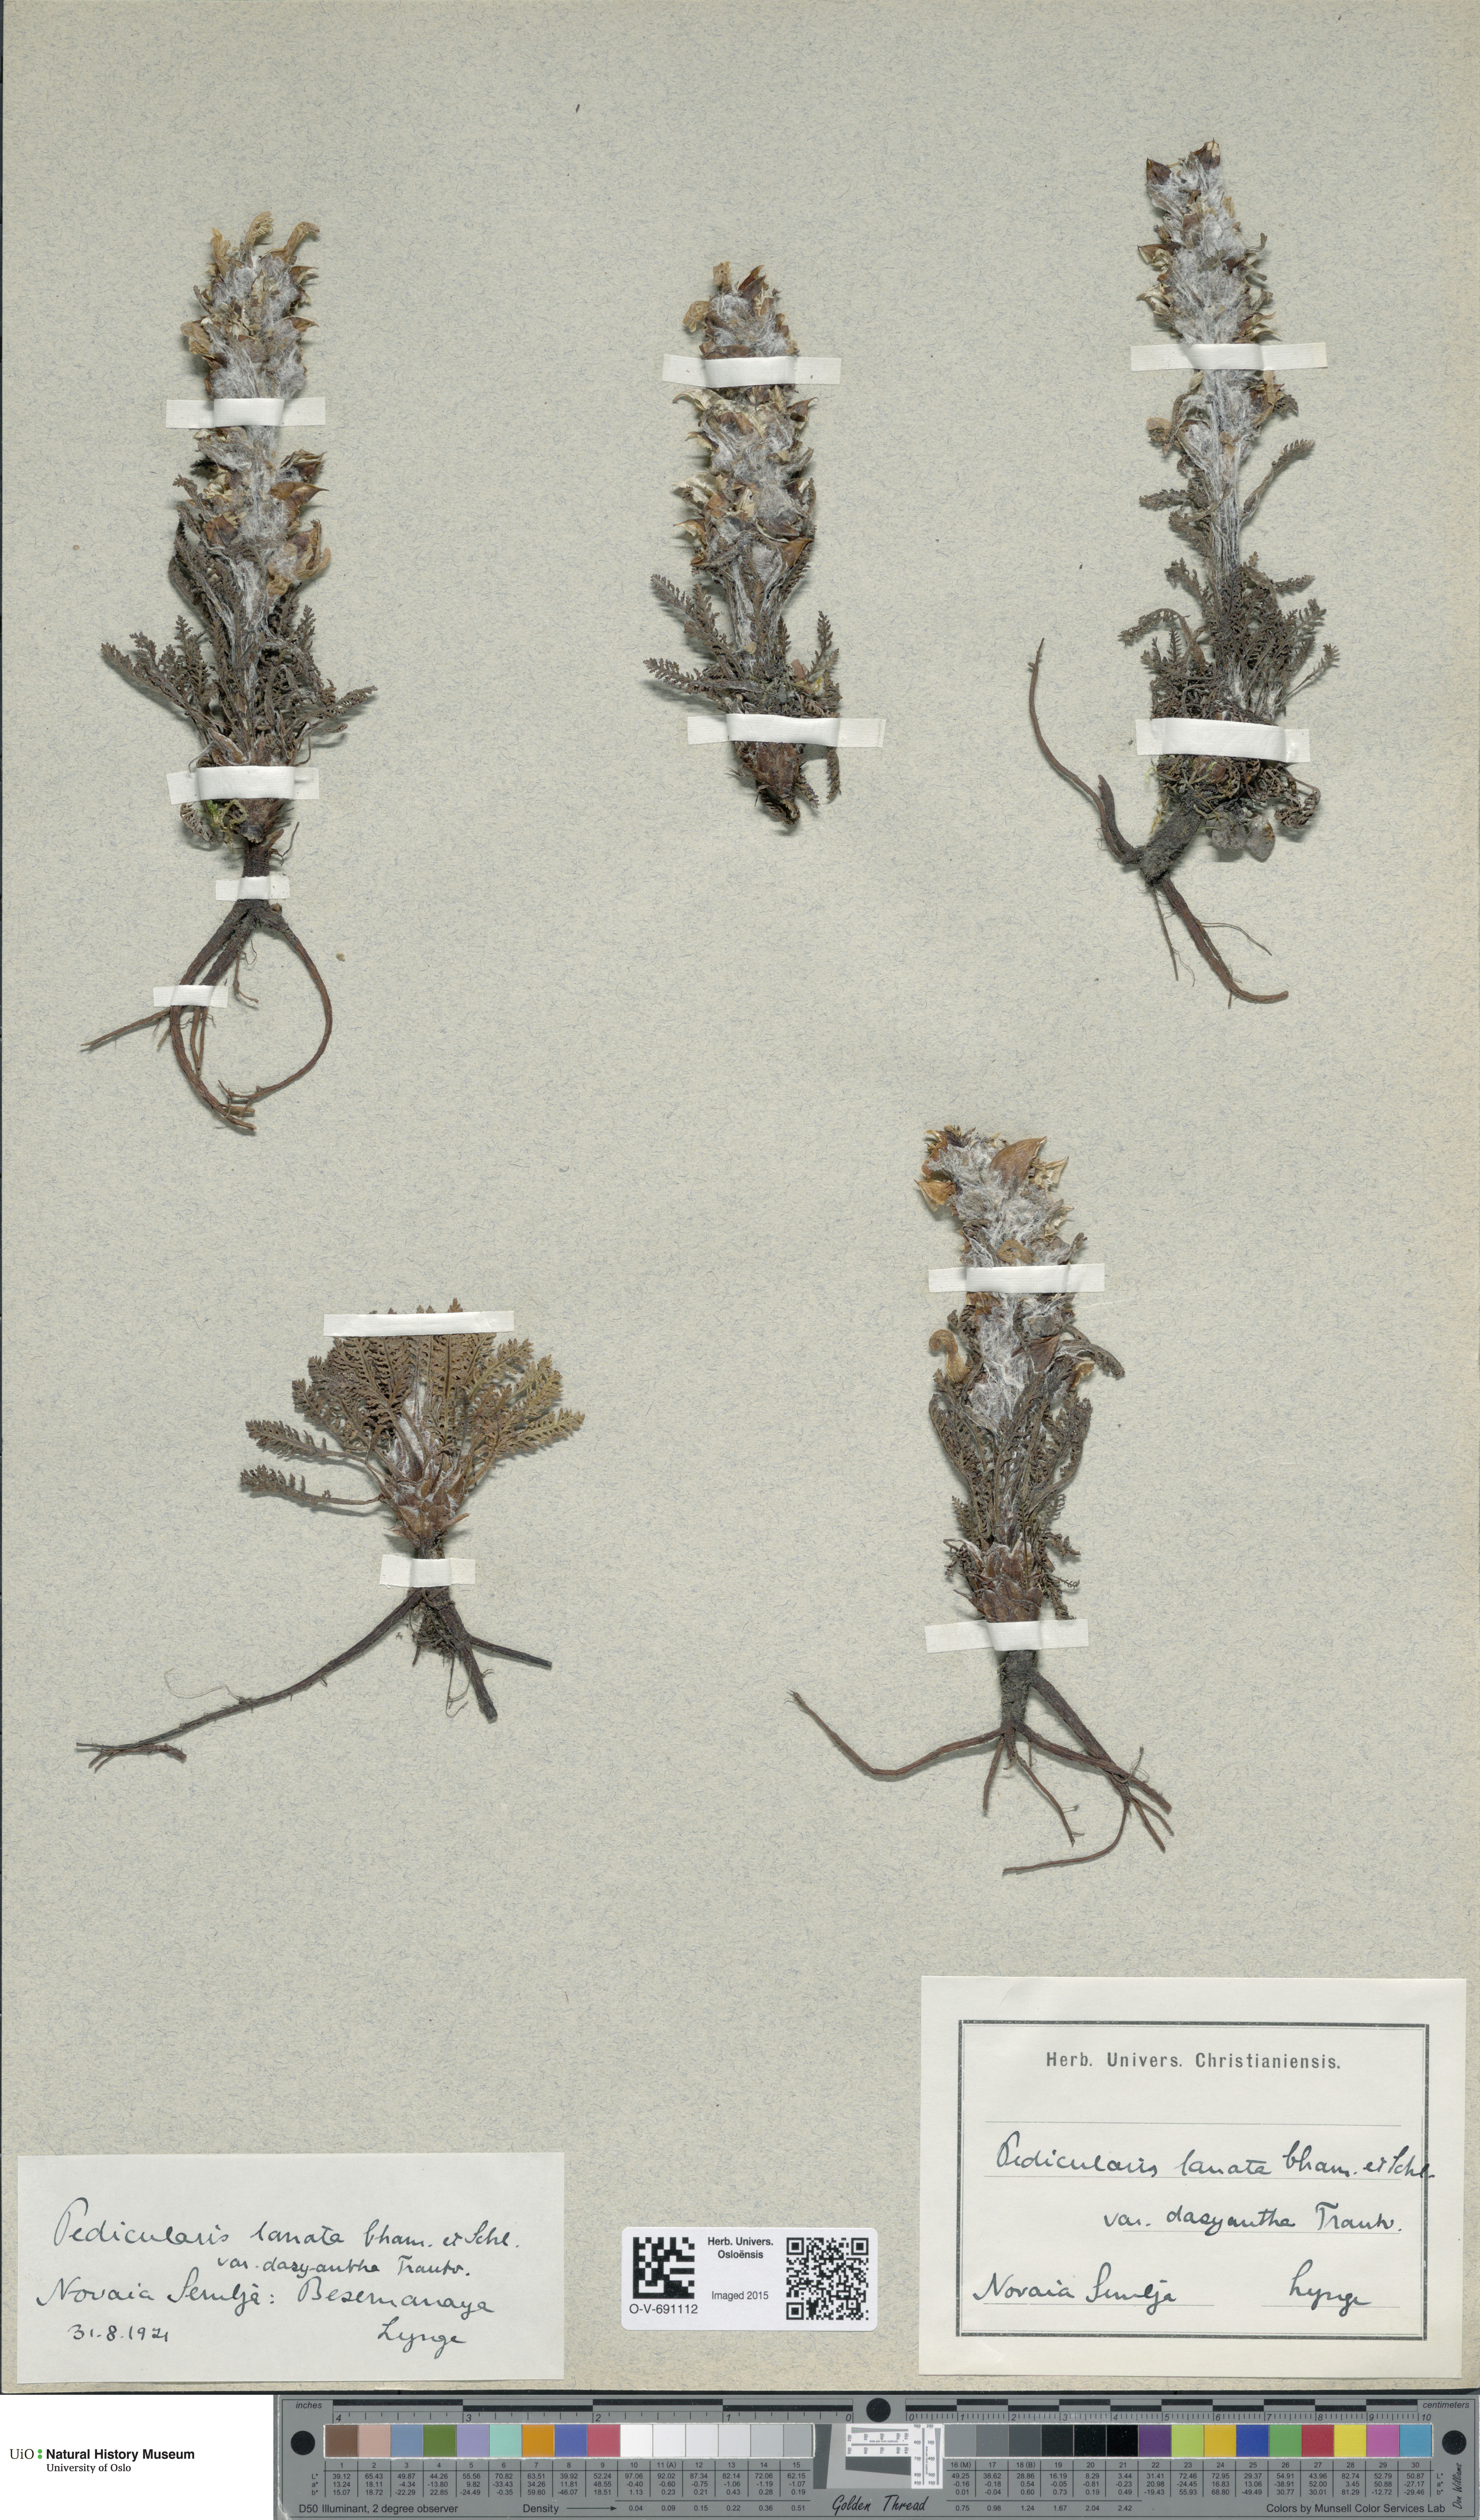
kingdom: Plantae
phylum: Tracheophyta
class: Magnoliopsida
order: Lamiales
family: Orobanchaceae
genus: Pedicularis
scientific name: Pedicularis dasyantha
